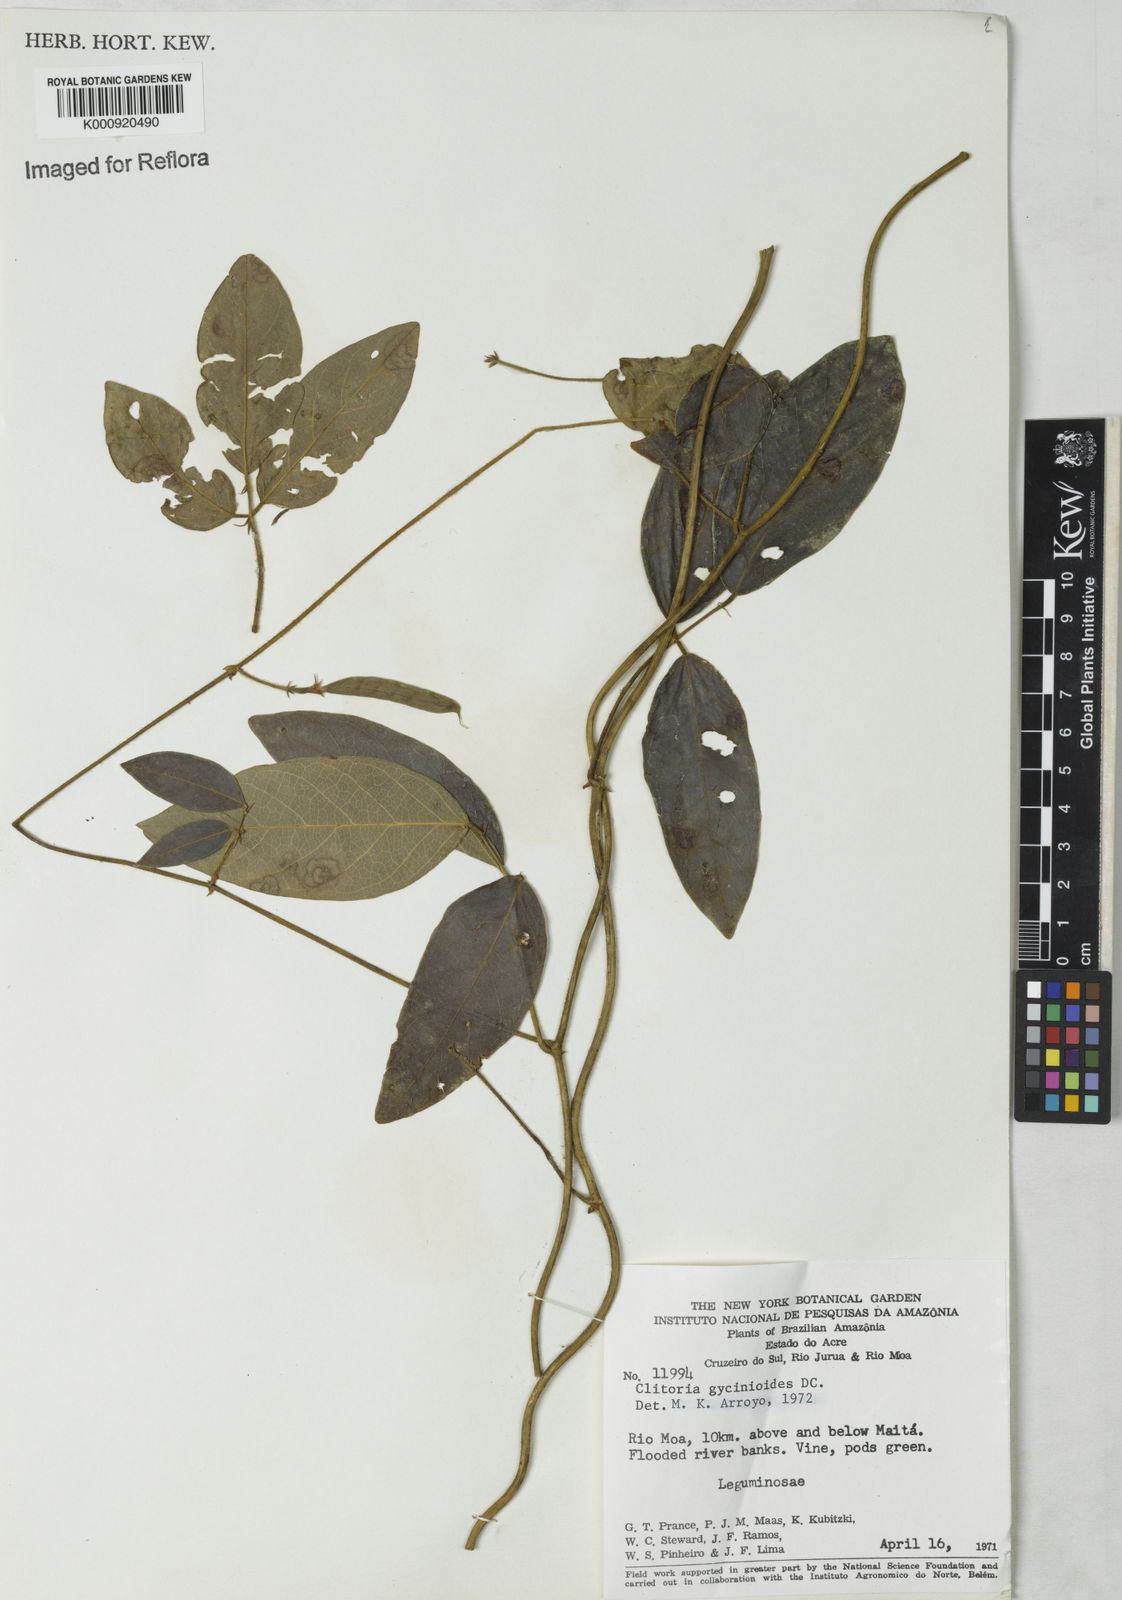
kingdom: Plantae
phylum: Tracheophyta
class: Magnoliopsida
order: Fabales
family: Fabaceae
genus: Clitoria
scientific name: Clitoria
